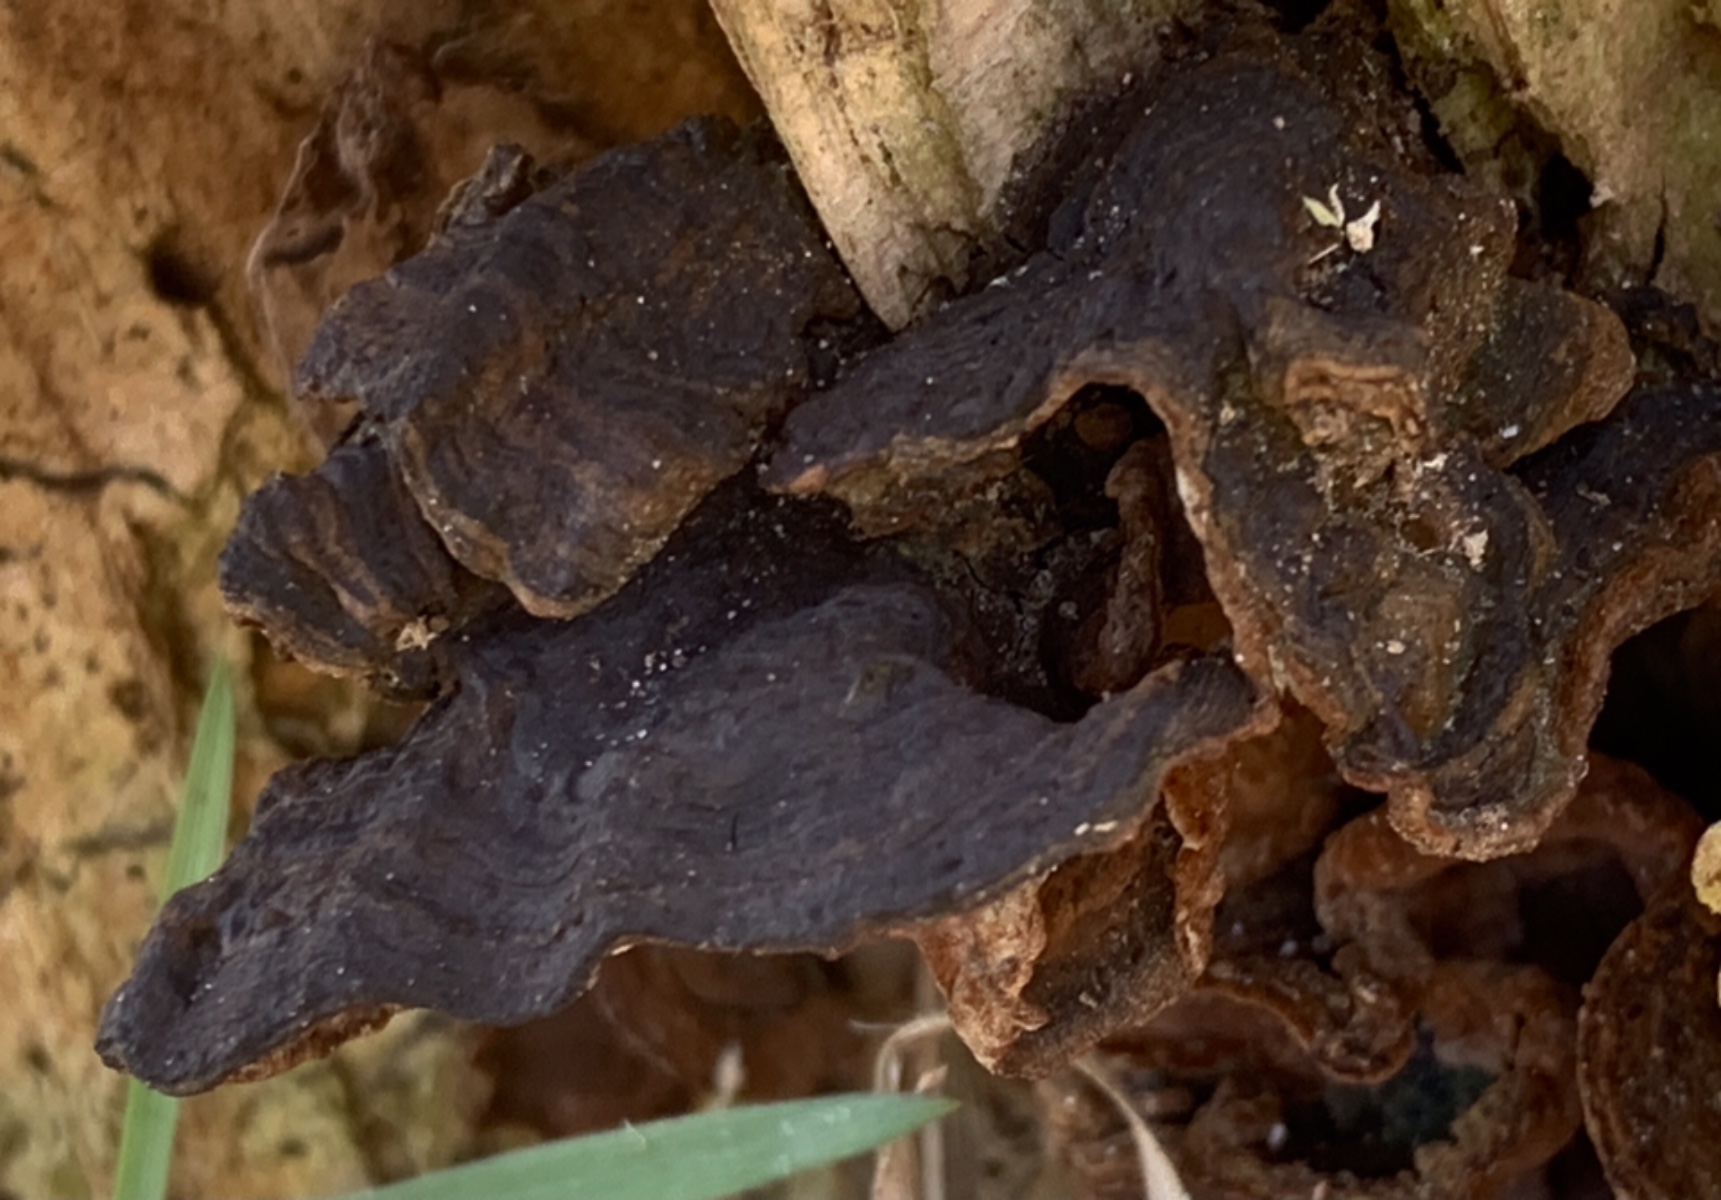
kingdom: Fungi
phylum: Basidiomycota
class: Agaricomycetes
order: Hymenochaetales
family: Hymenochaetaceae
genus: Hymenochaete
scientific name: Hymenochaete rubiginosa
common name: stiv ruslædersvamp
